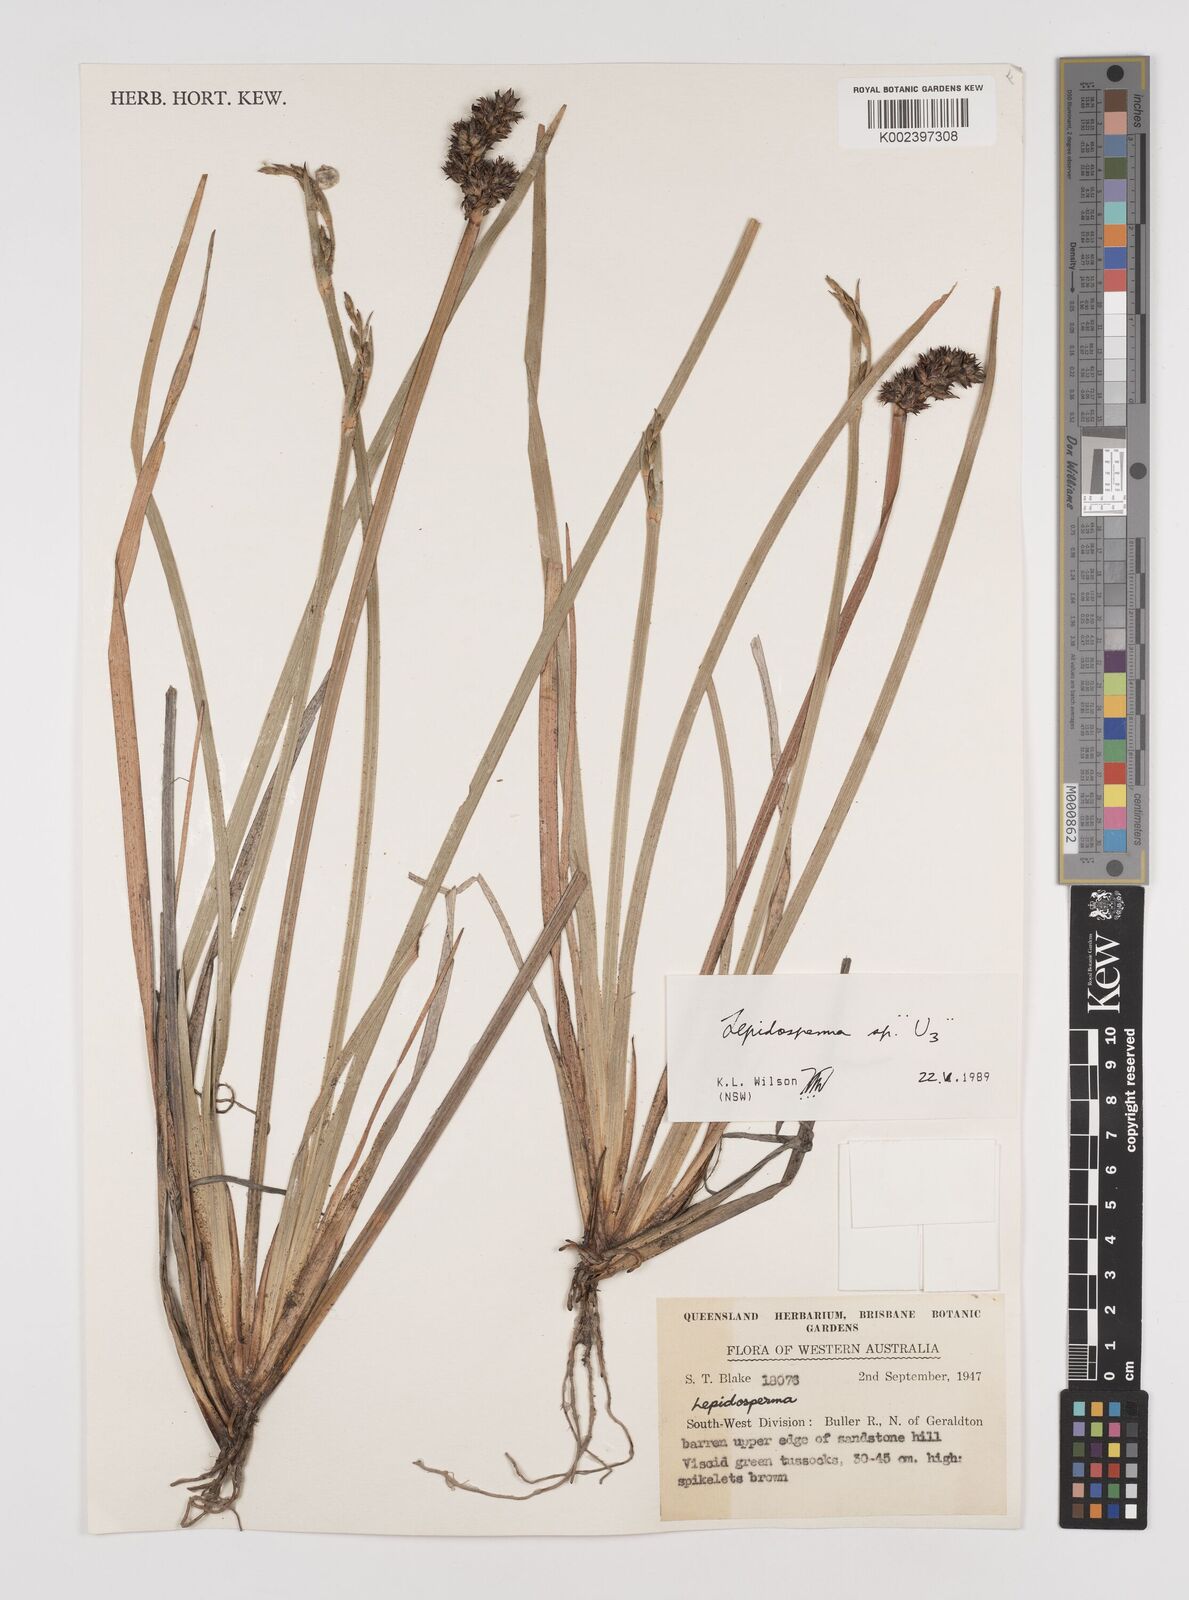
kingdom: Plantae
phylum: Tracheophyta
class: Liliopsida
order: Poales
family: Cyperaceae
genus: Lepidosperma
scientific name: Lepidosperma
